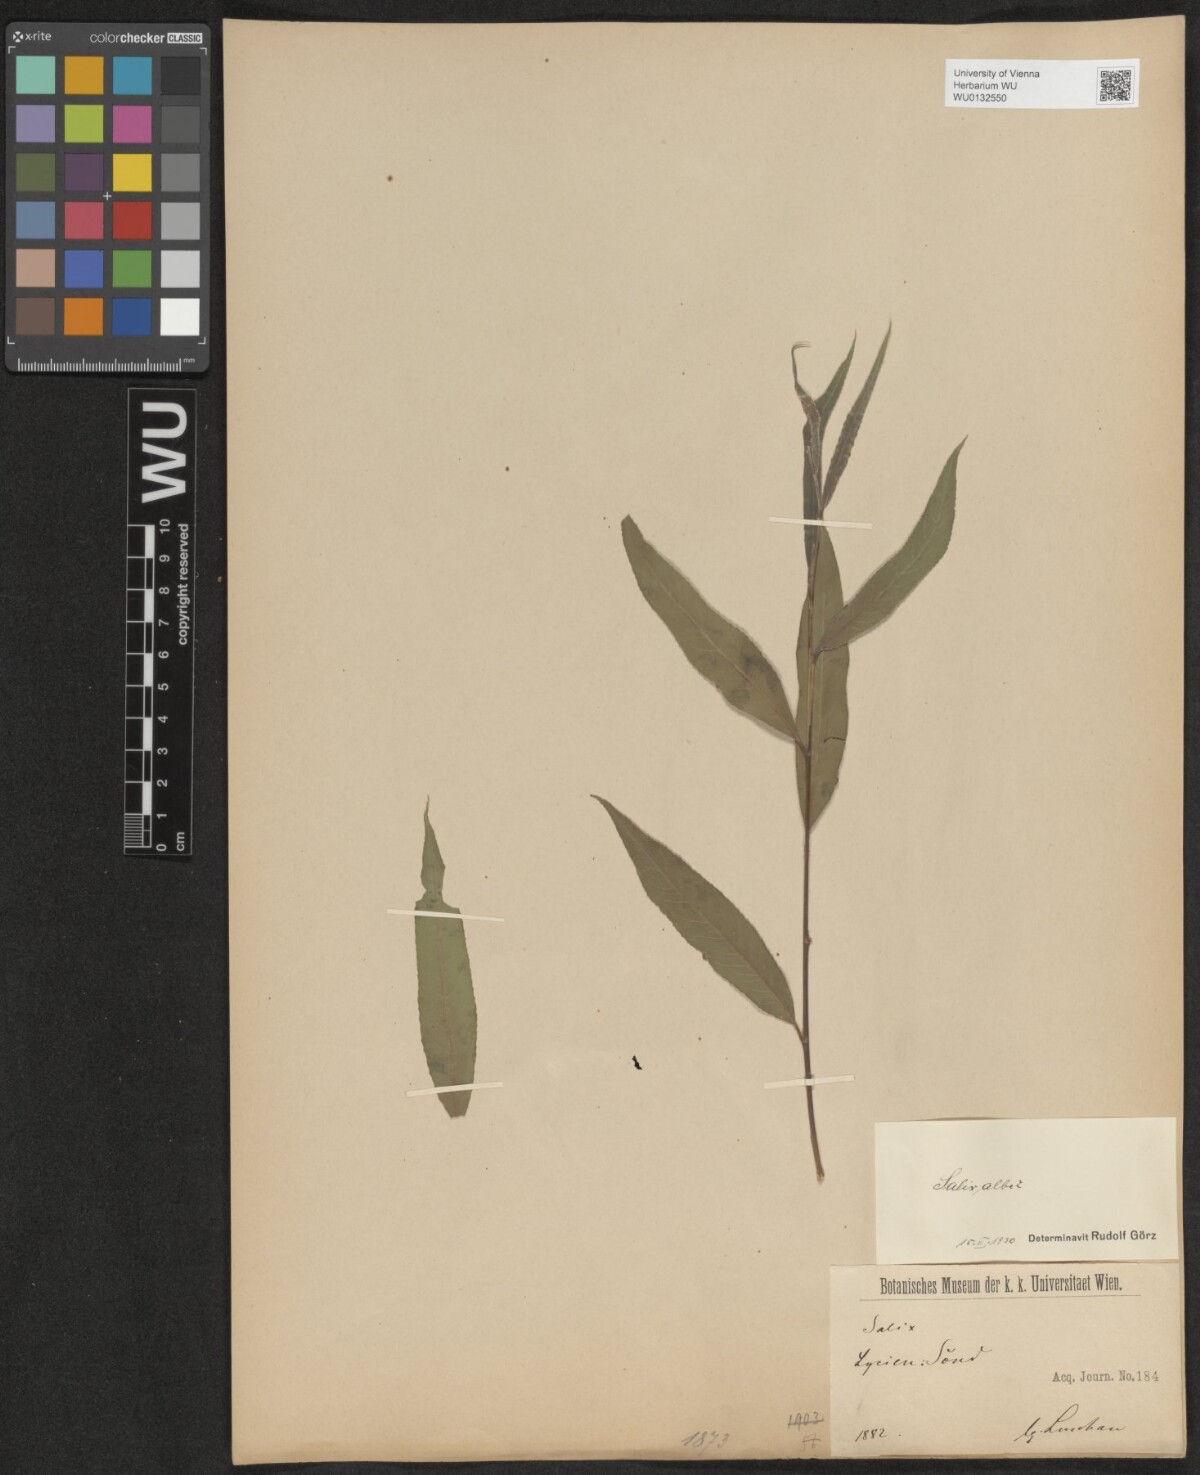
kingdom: Plantae
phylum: Tracheophyta
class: Magnoliopsida
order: Malpighiales
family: Salicaceae
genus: Salix
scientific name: Salix alba
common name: White willow
